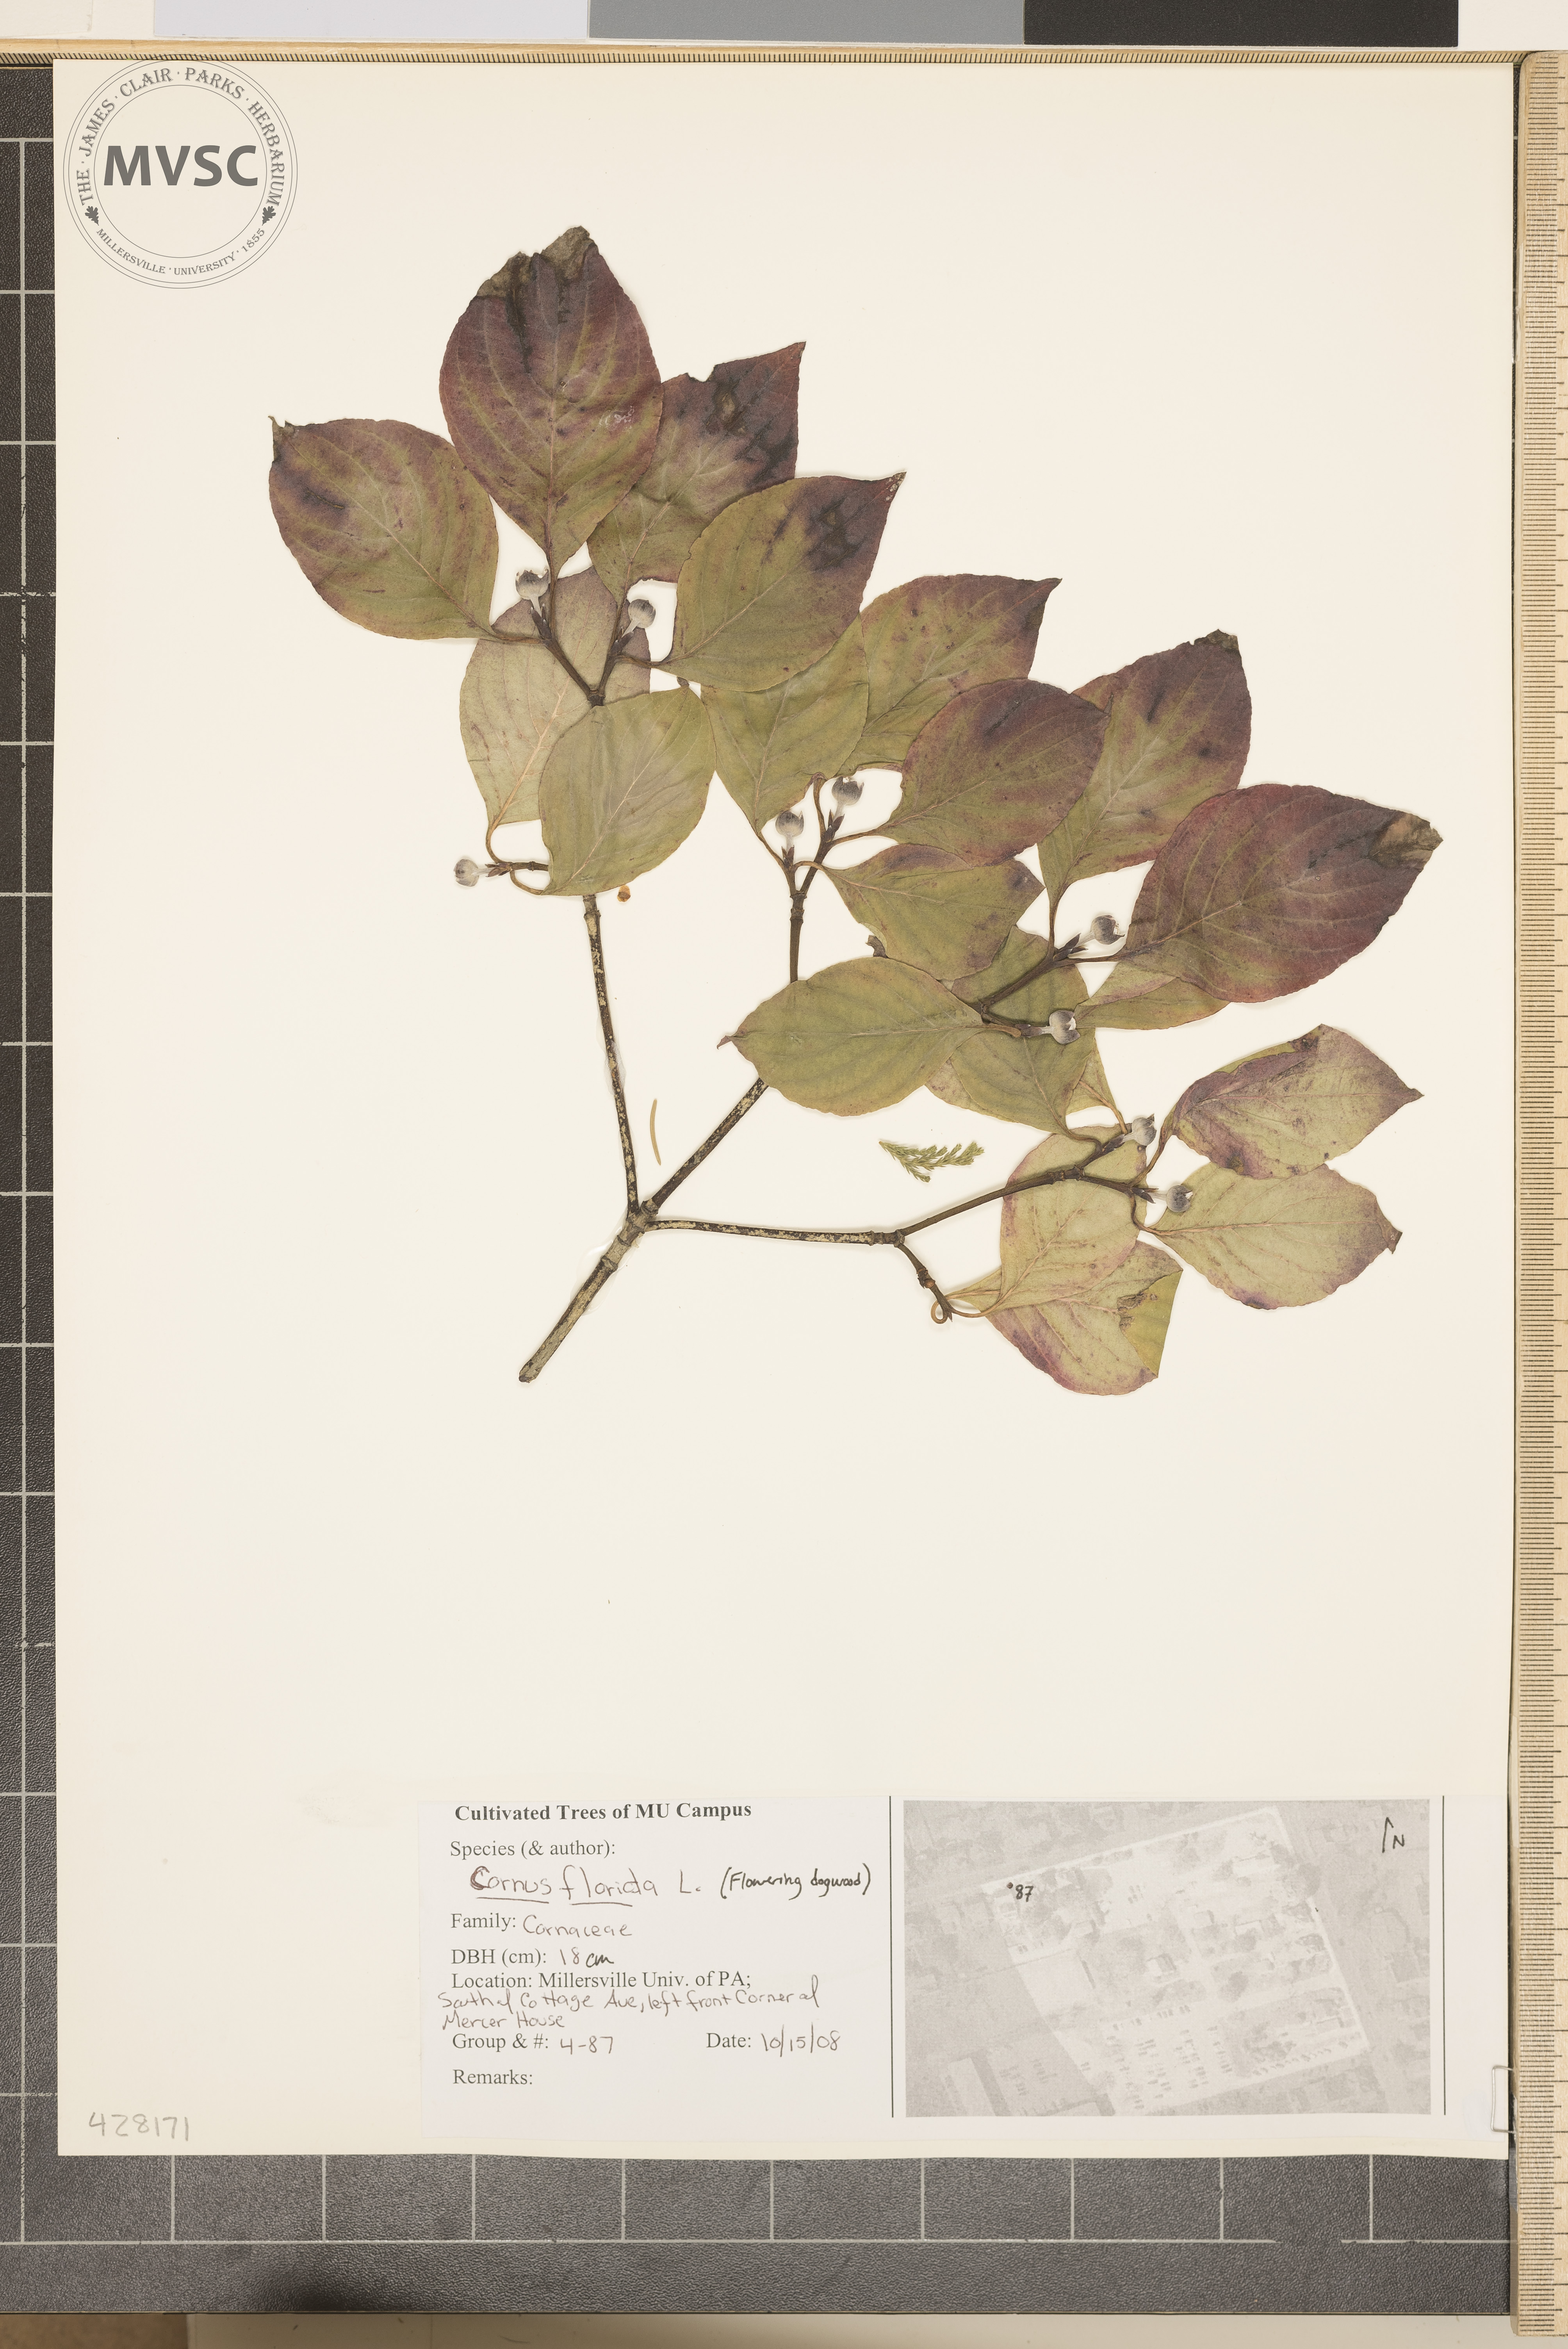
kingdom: Plantae
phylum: Tracheophyta
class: Magnoliopsida
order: Cornales
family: Cornaceae
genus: Cornus
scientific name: Cornus florida
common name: Flowering Dogwood
